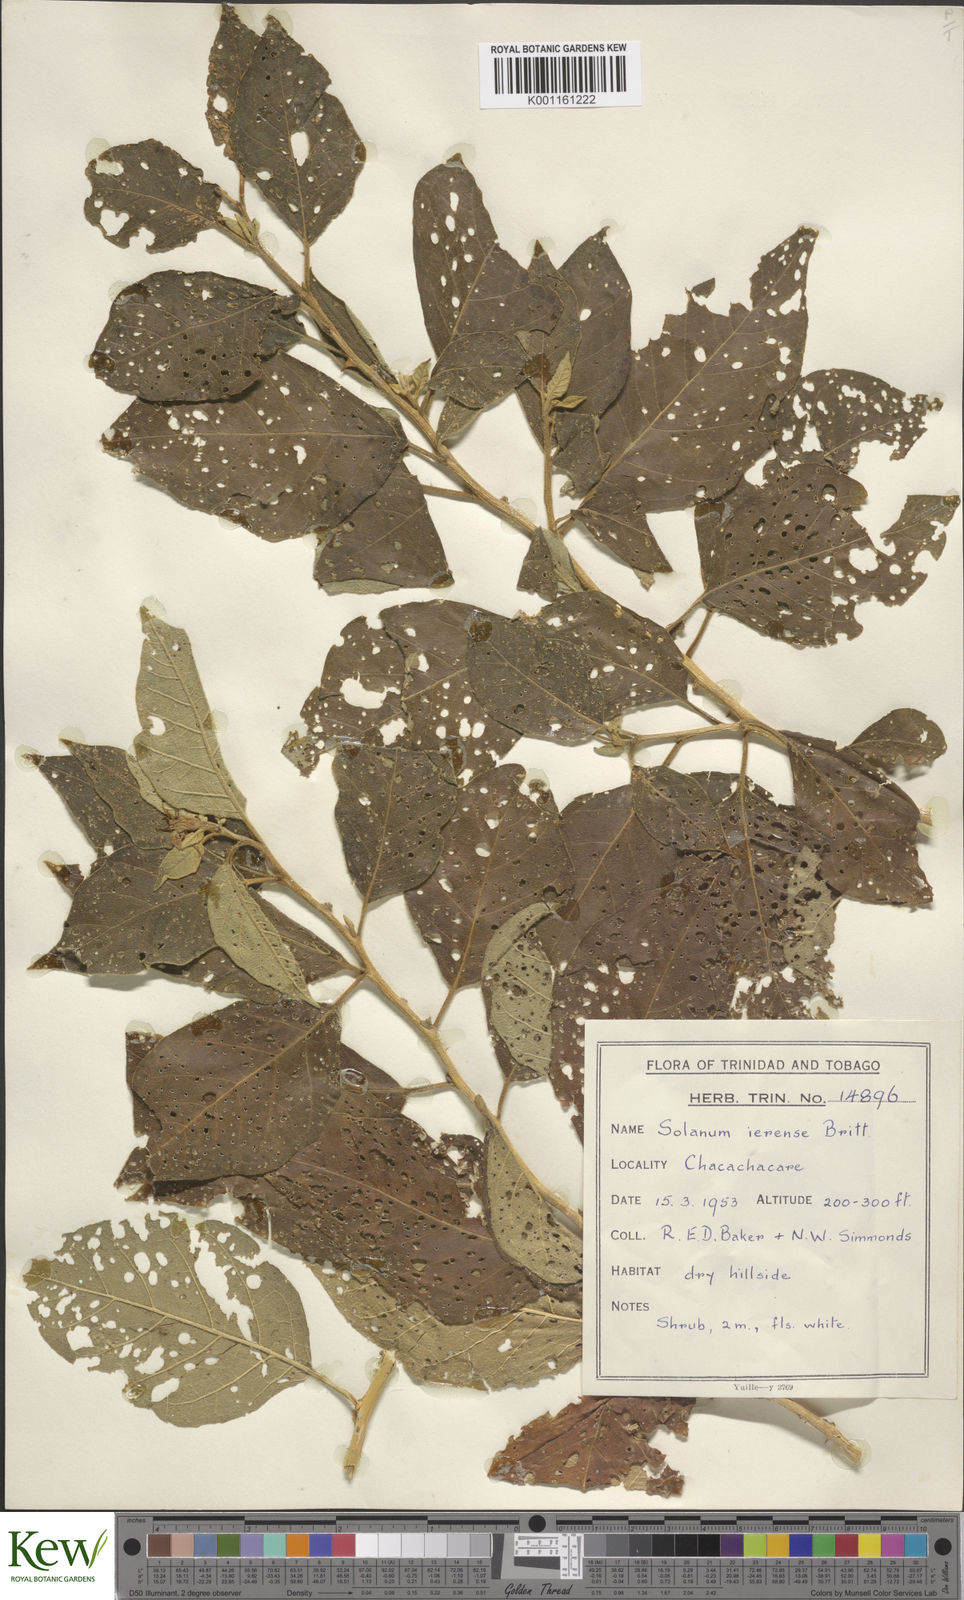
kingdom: Plantae
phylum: Tracheophyta
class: Magnoliopsida
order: Solanales
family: Solanaceae
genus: Solanum
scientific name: Solanum gardneri
